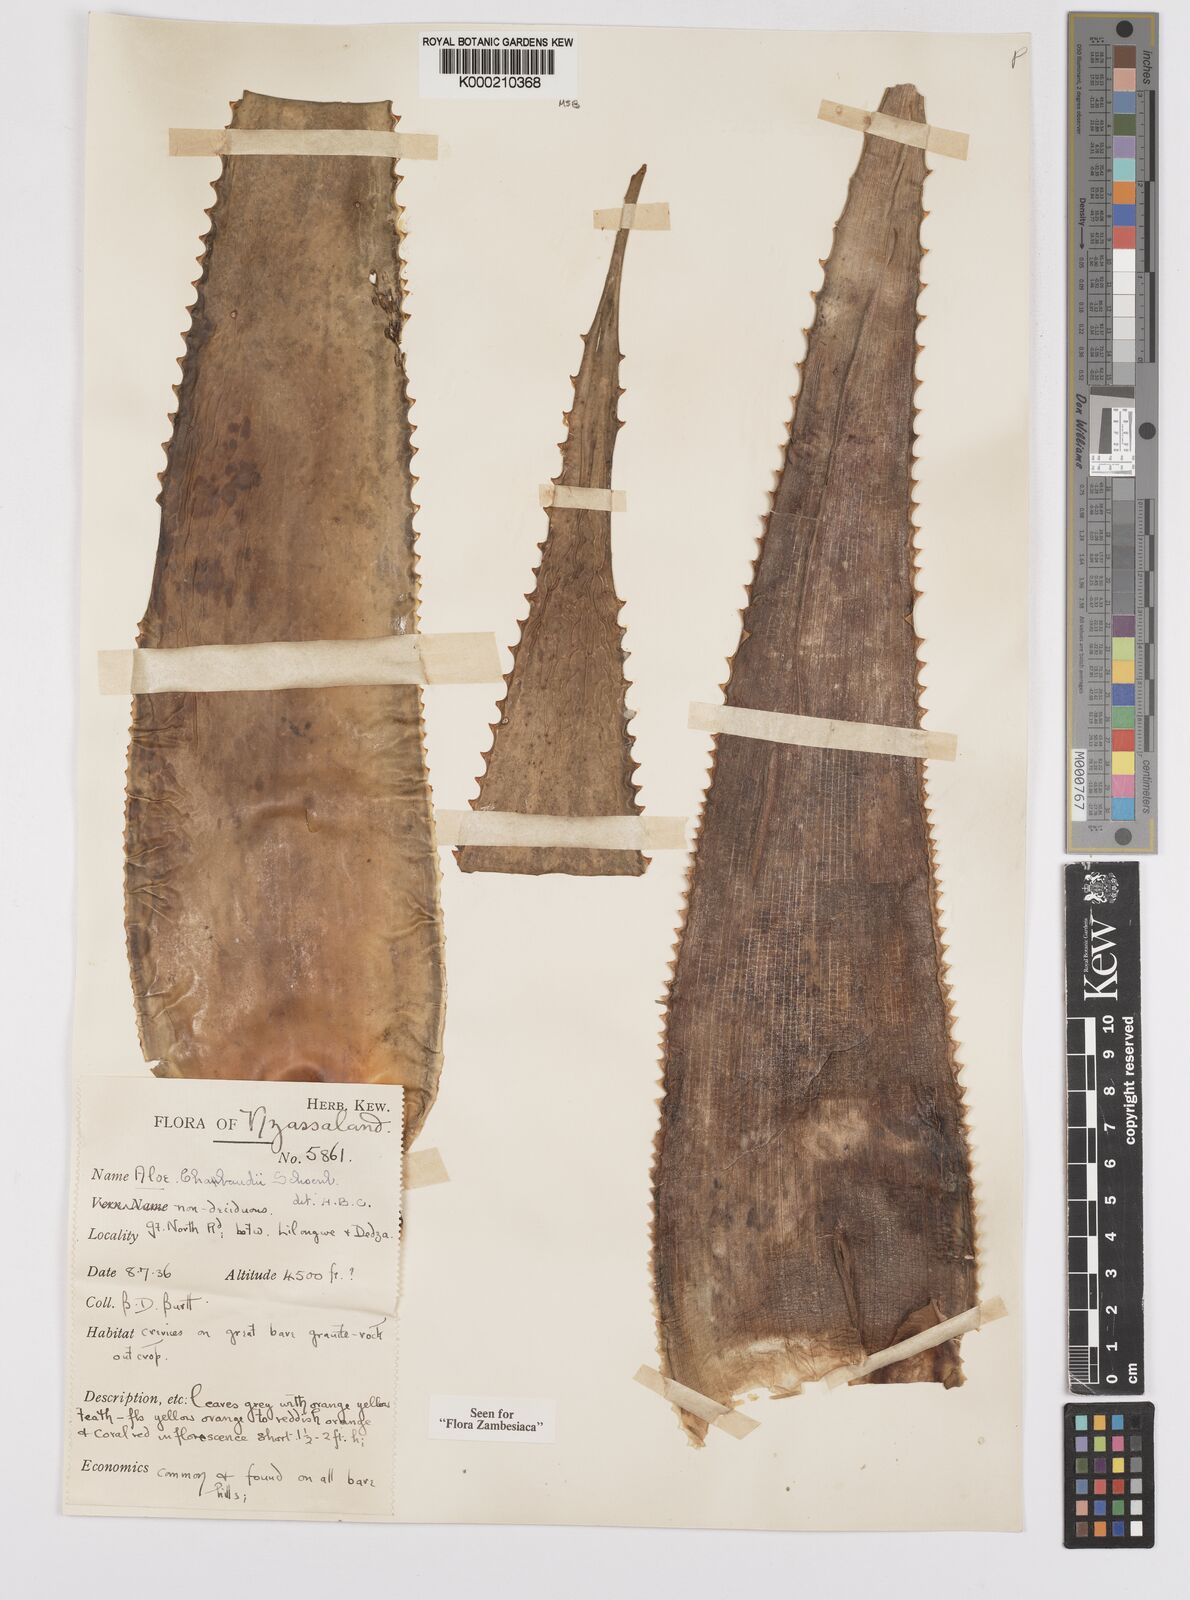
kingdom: Plantae
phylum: Tracheophyta
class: Liliopsida
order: Asparagales
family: Asphodelaceae
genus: Aloe
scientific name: Aloe chabaudii
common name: Chabaud's aloe
